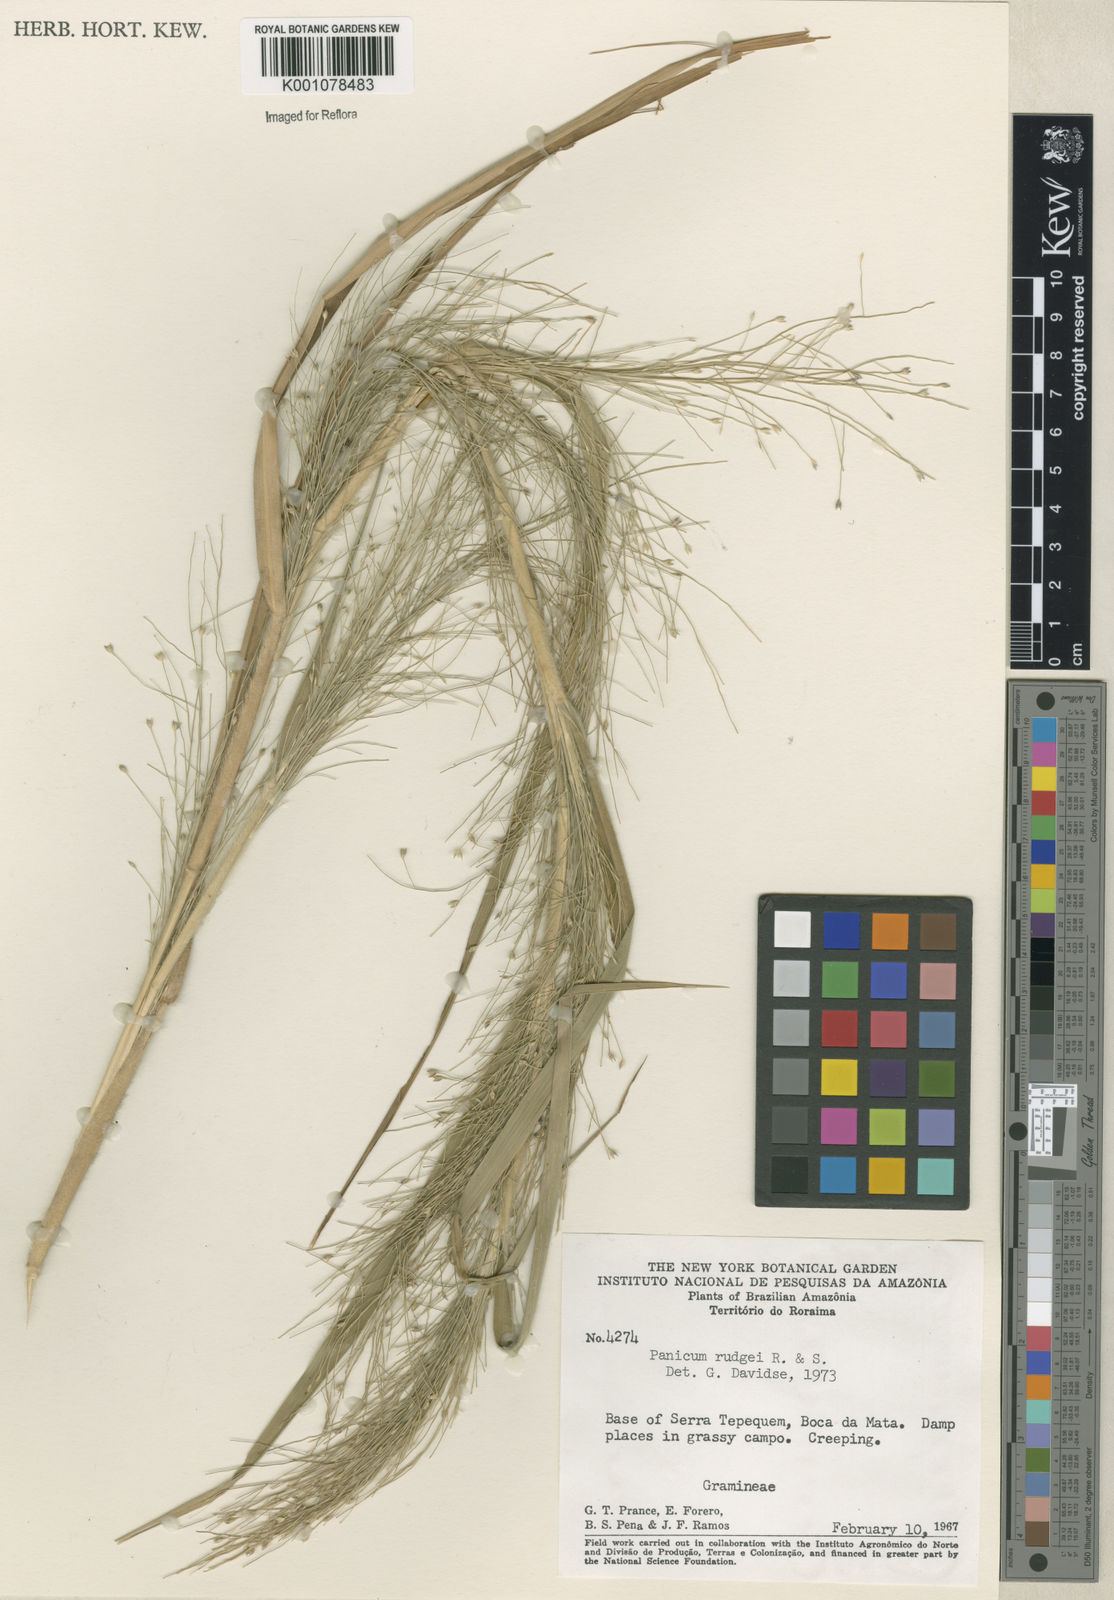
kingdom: Plantae
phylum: Tracheophyta
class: Liliopsida
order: Poales
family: Poaceae
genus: Panicum
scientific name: Panicum rudgei
